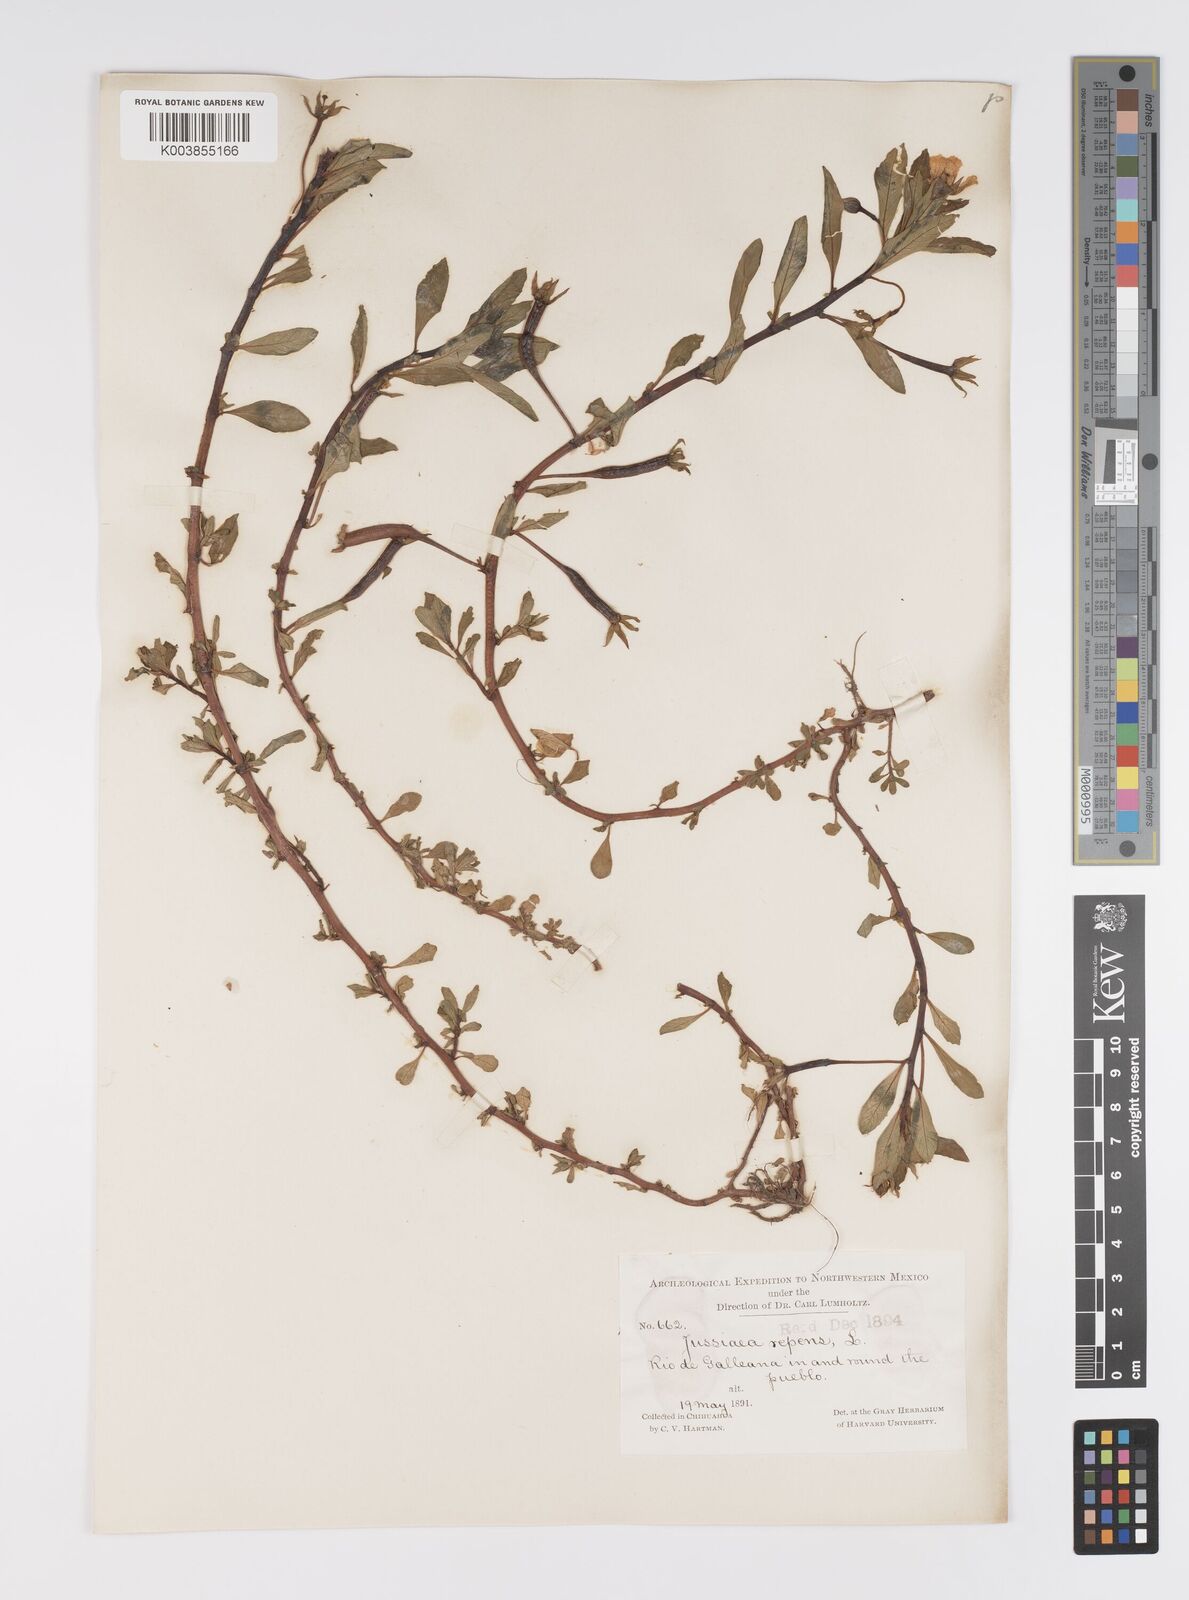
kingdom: Plantae
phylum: Tracheophyta
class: Magnoliopsida
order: Myrtales
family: Onagraceae
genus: Ludwigia
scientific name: Ludwigia adscendens
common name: Creeping water primrose
